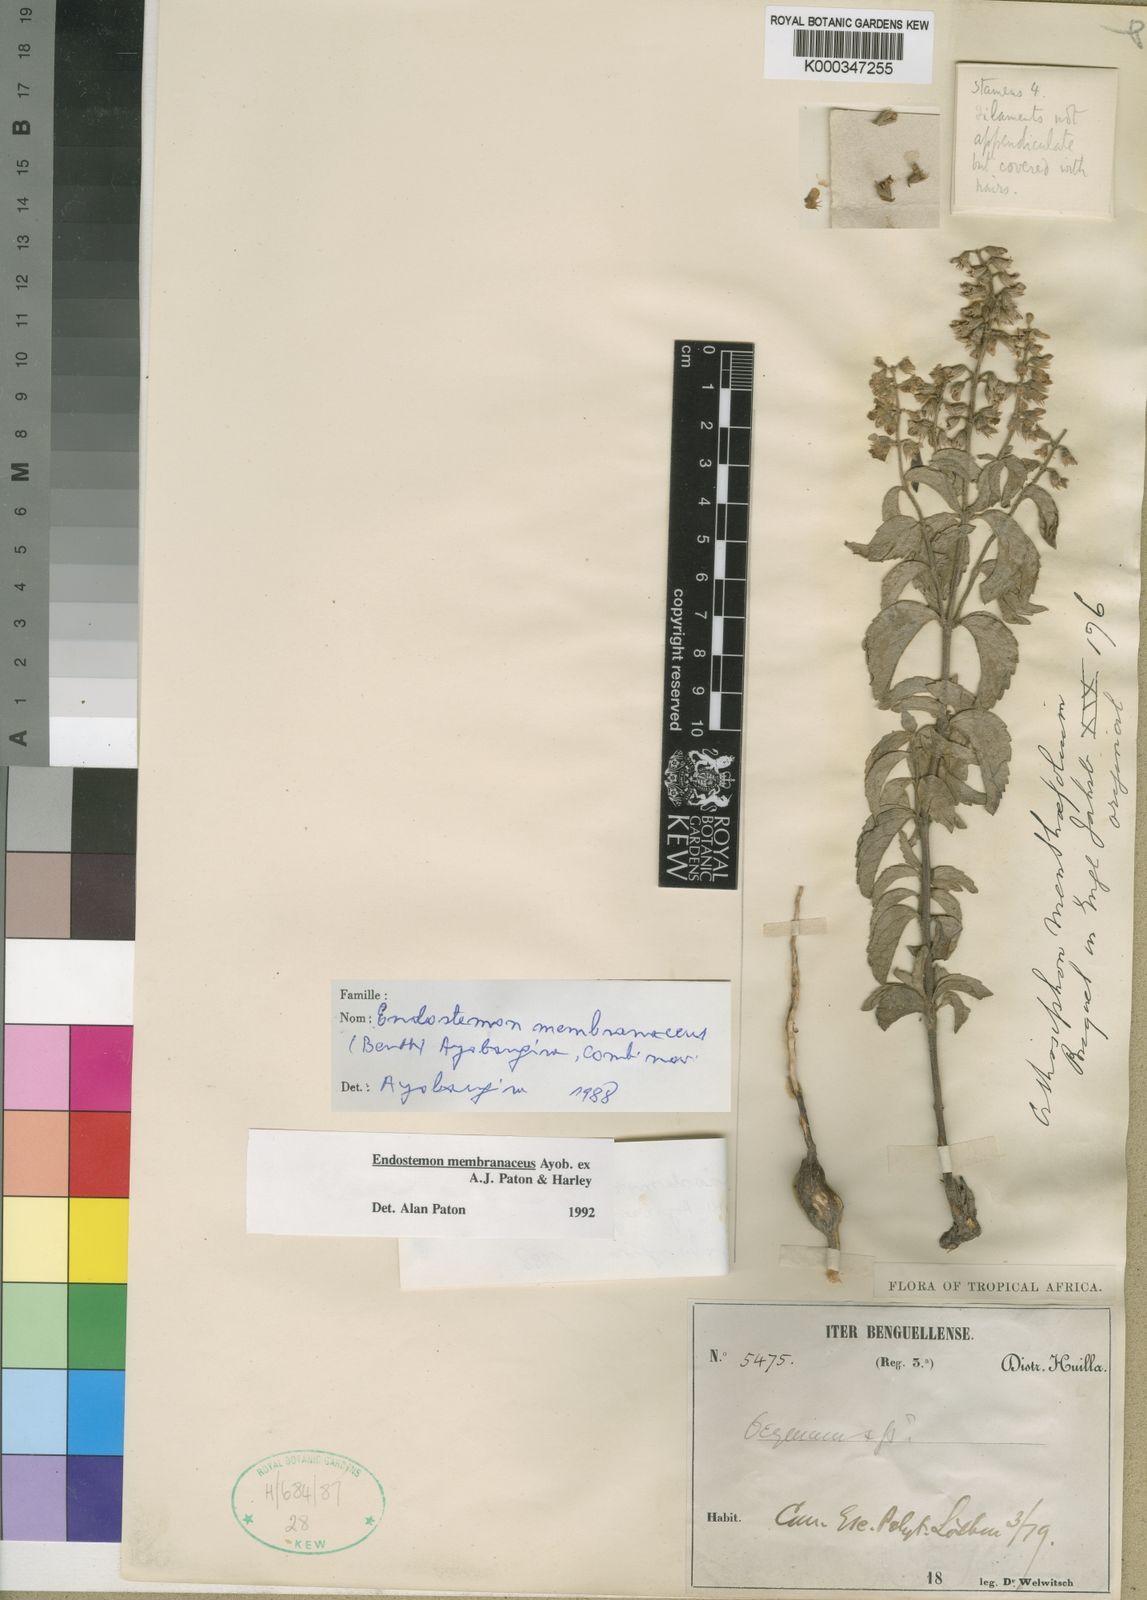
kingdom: Plantae
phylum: Tracheophyta
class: Magnoliopsida
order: Lamiales
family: Lamiaceae
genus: Endostemon
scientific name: Endostemon membranaceus
